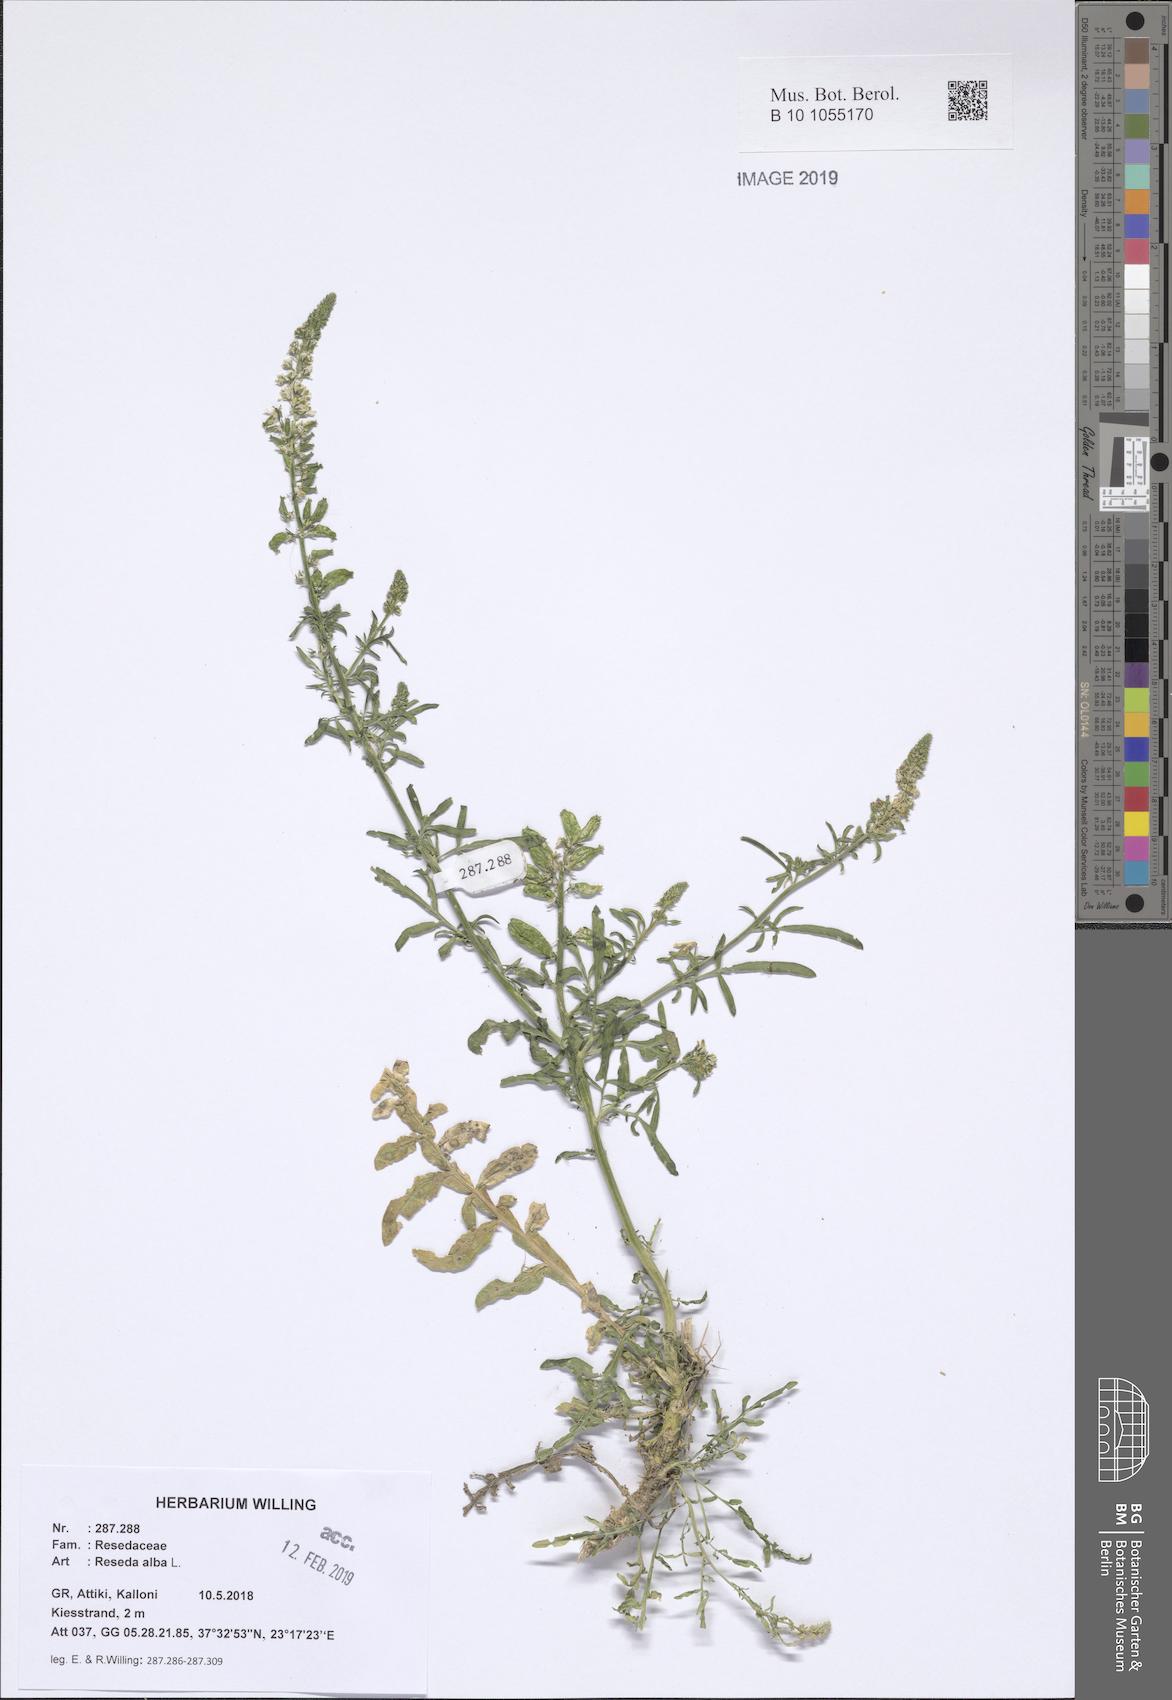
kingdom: Plantae
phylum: Tracheophyta
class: Magnoliopsida
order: Brassicales
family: Resedaceae
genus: Reseda
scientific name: Reseda alba
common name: White mignonette
